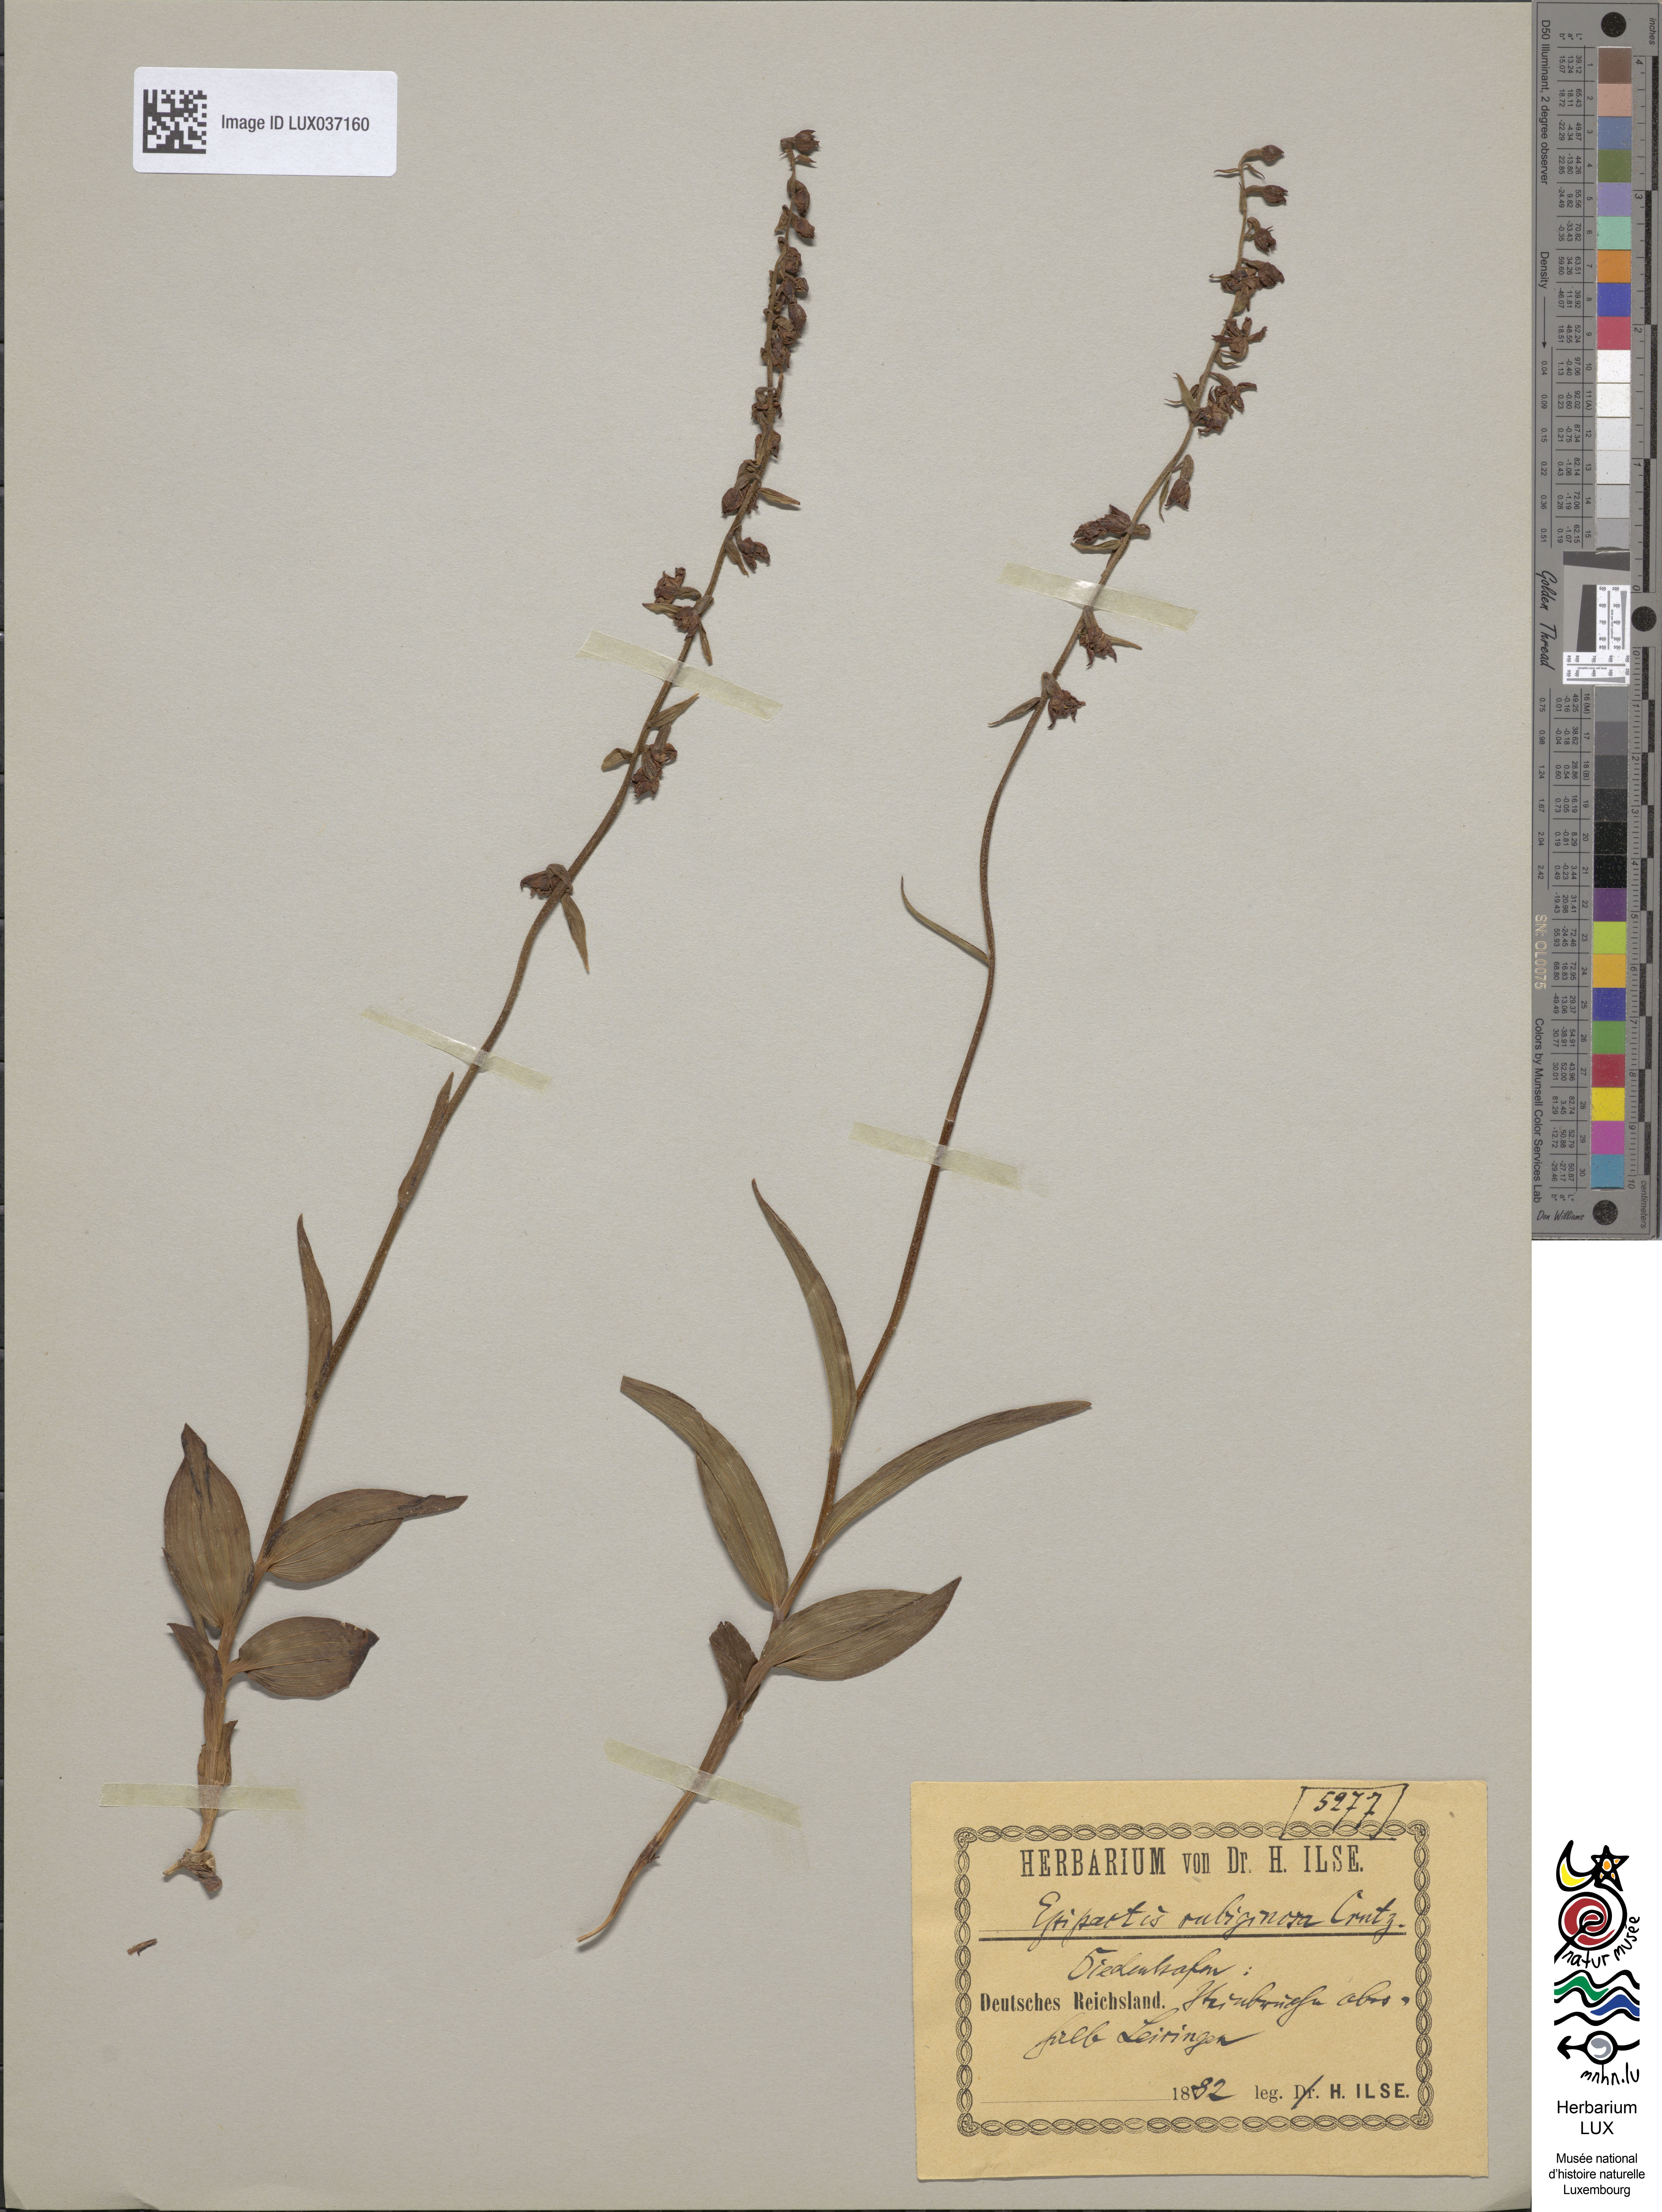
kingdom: Plantae
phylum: Tracheophyta
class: Liliopsida
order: Asparagales
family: Orchidaceae
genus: Epipactis
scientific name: Epipactis atrorubens
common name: Dark-red helleborine
